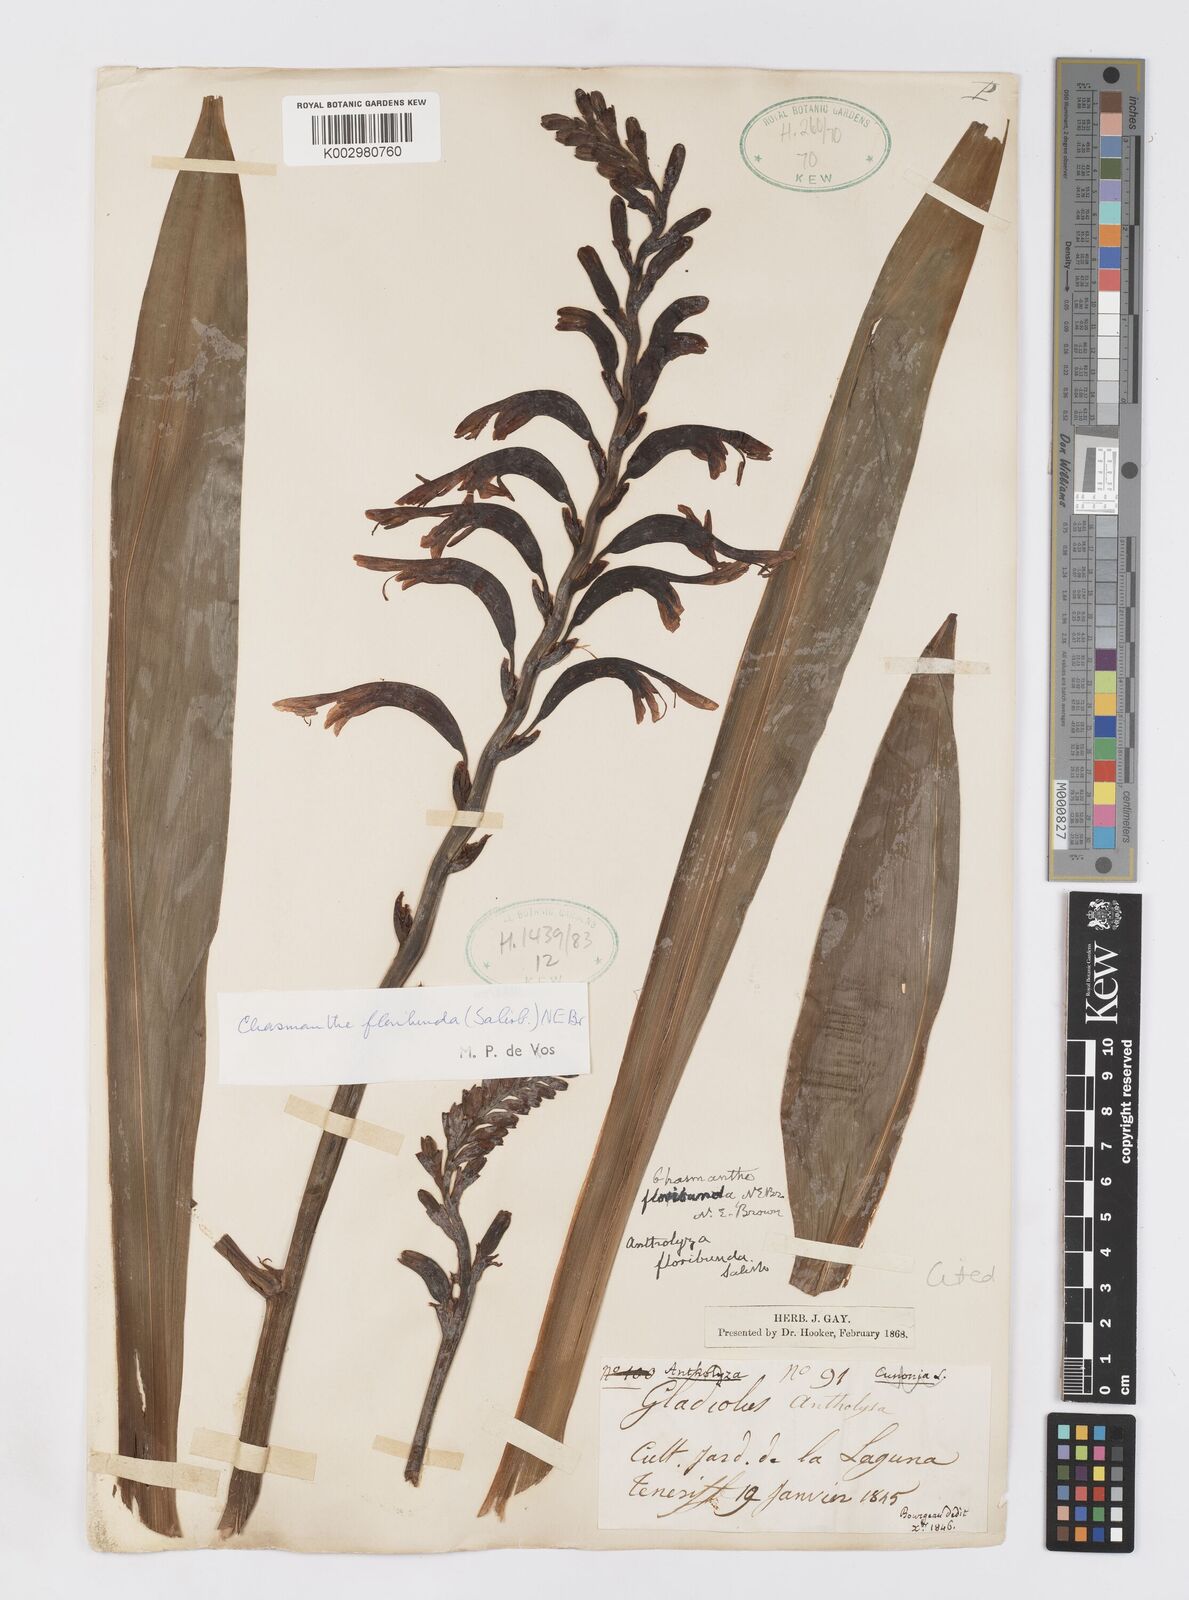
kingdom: Plantae
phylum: Tracheophyta
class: Liliopsida
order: Asparagales
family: Iridaceae
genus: Chasmanthe
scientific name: Chasmanthe floribunda
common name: African cornflag
